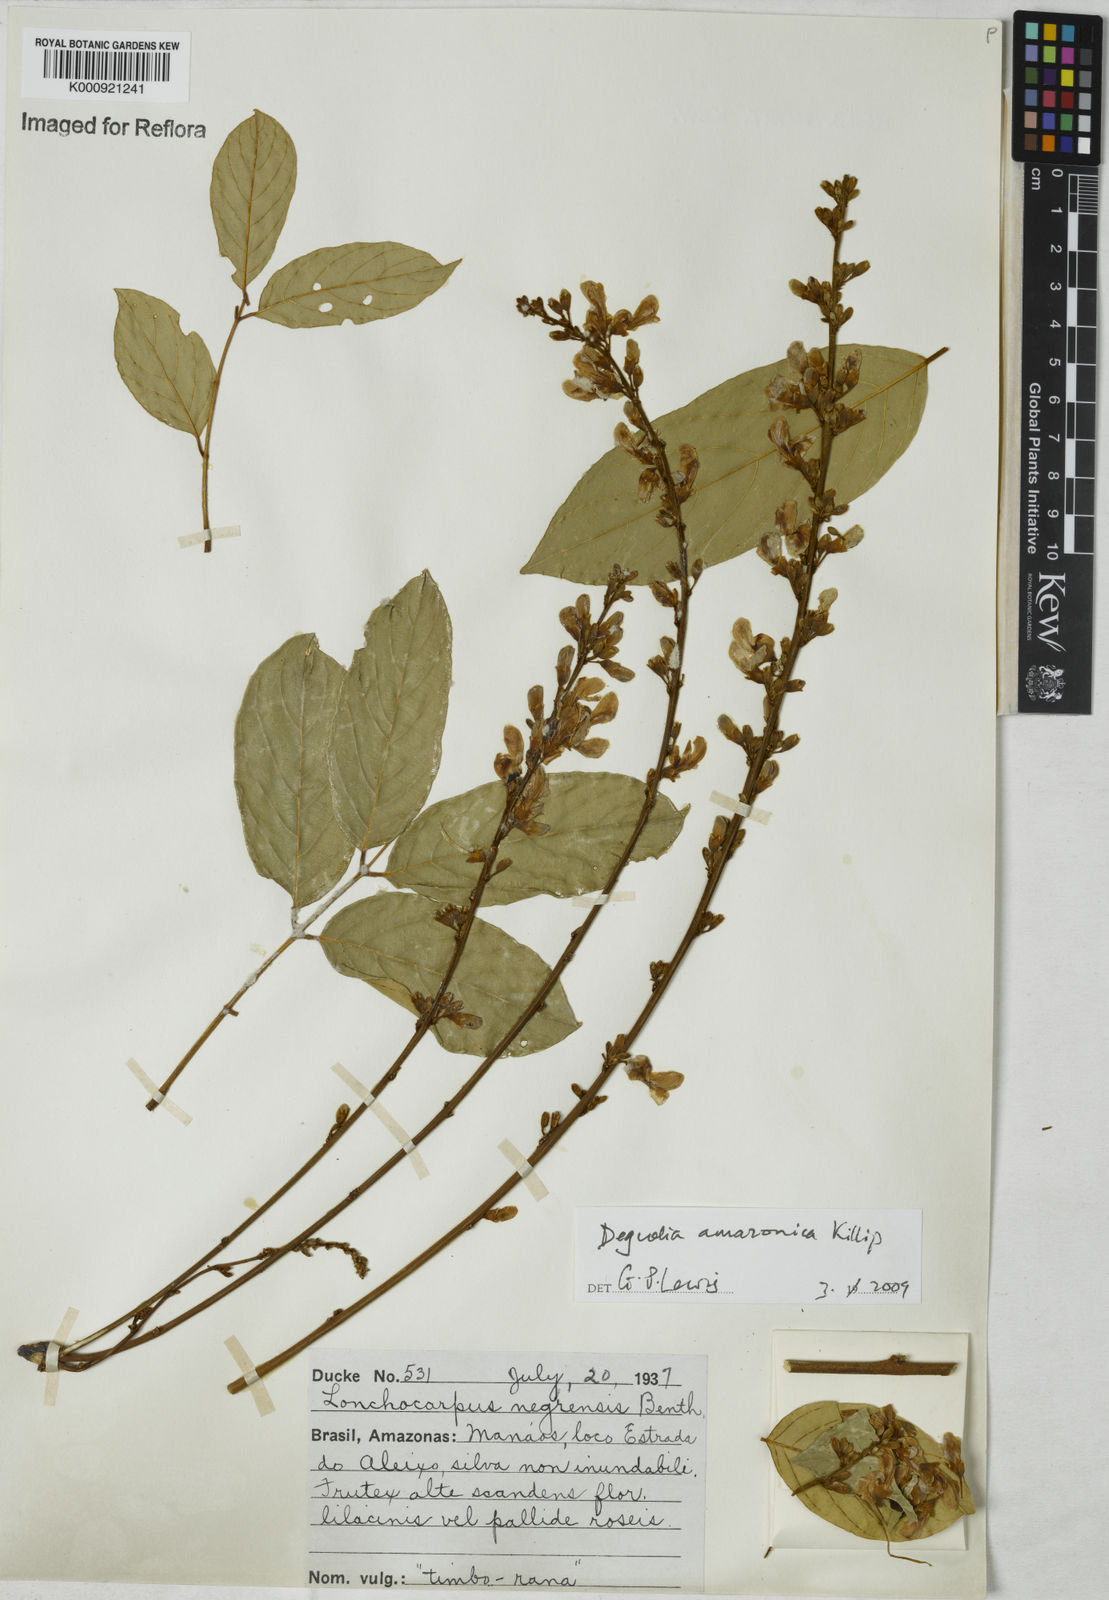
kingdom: Plantae
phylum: Tracheophyta
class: Magnoliopsida
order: Fabales
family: Fabaceae
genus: Deguelia
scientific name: Deguelia amazonica
